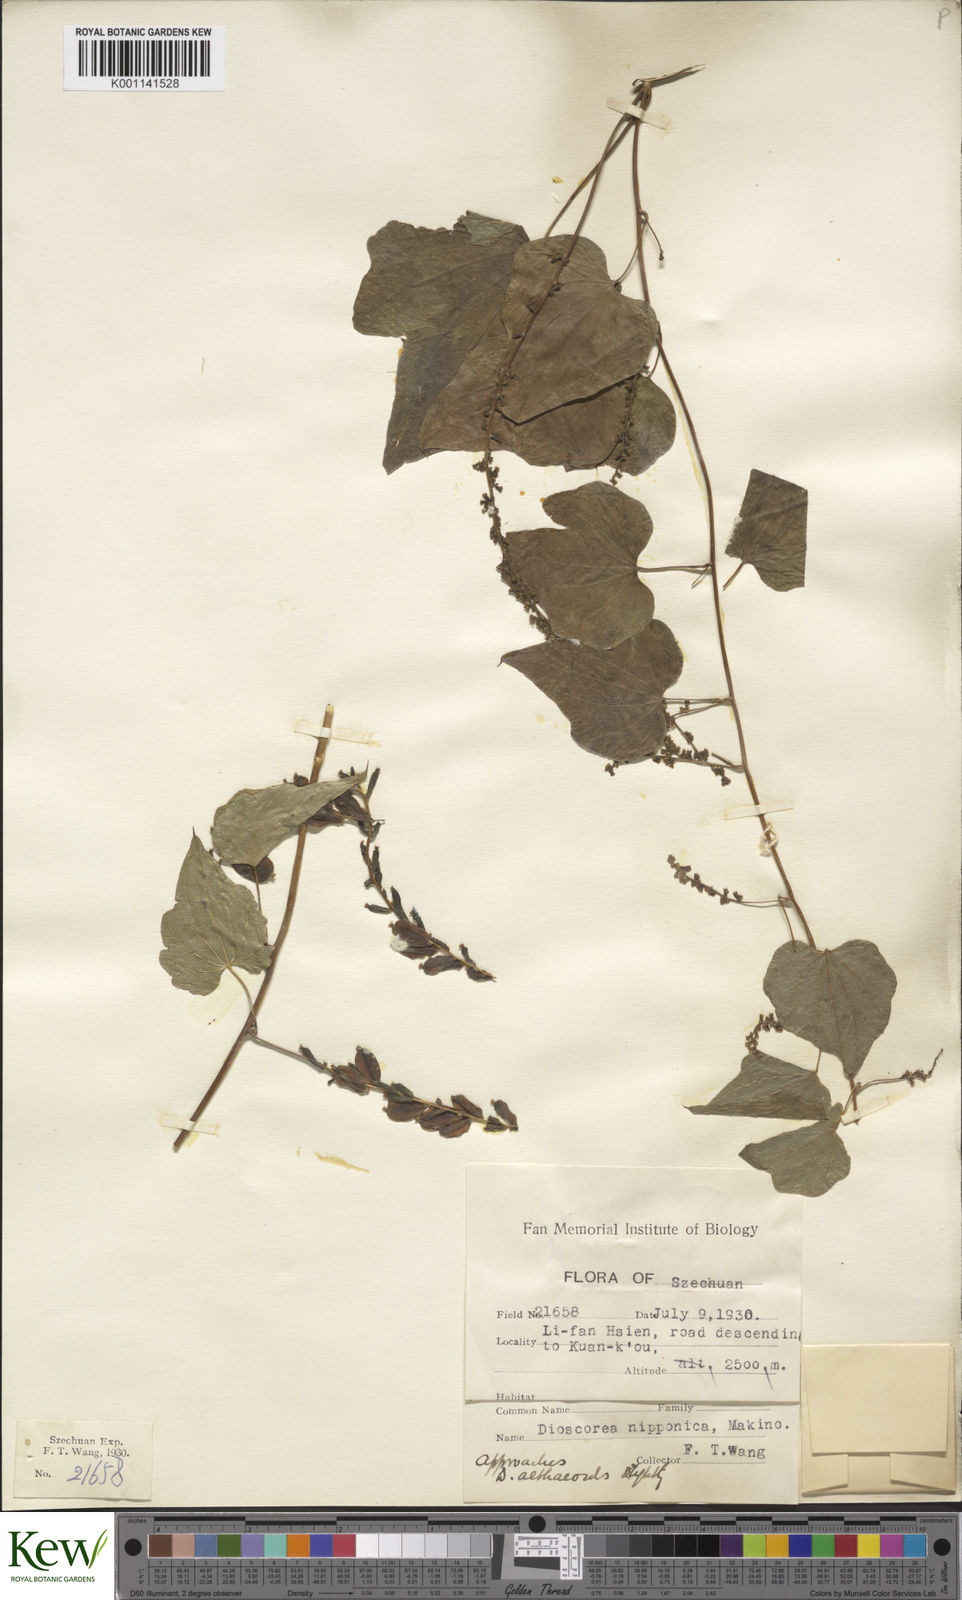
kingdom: Plantae
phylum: Tracheophyta
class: Liliopsida
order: Dioscoreales
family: Dioscoreaceae
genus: Dioscorea
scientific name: Dioscorea nipponica
